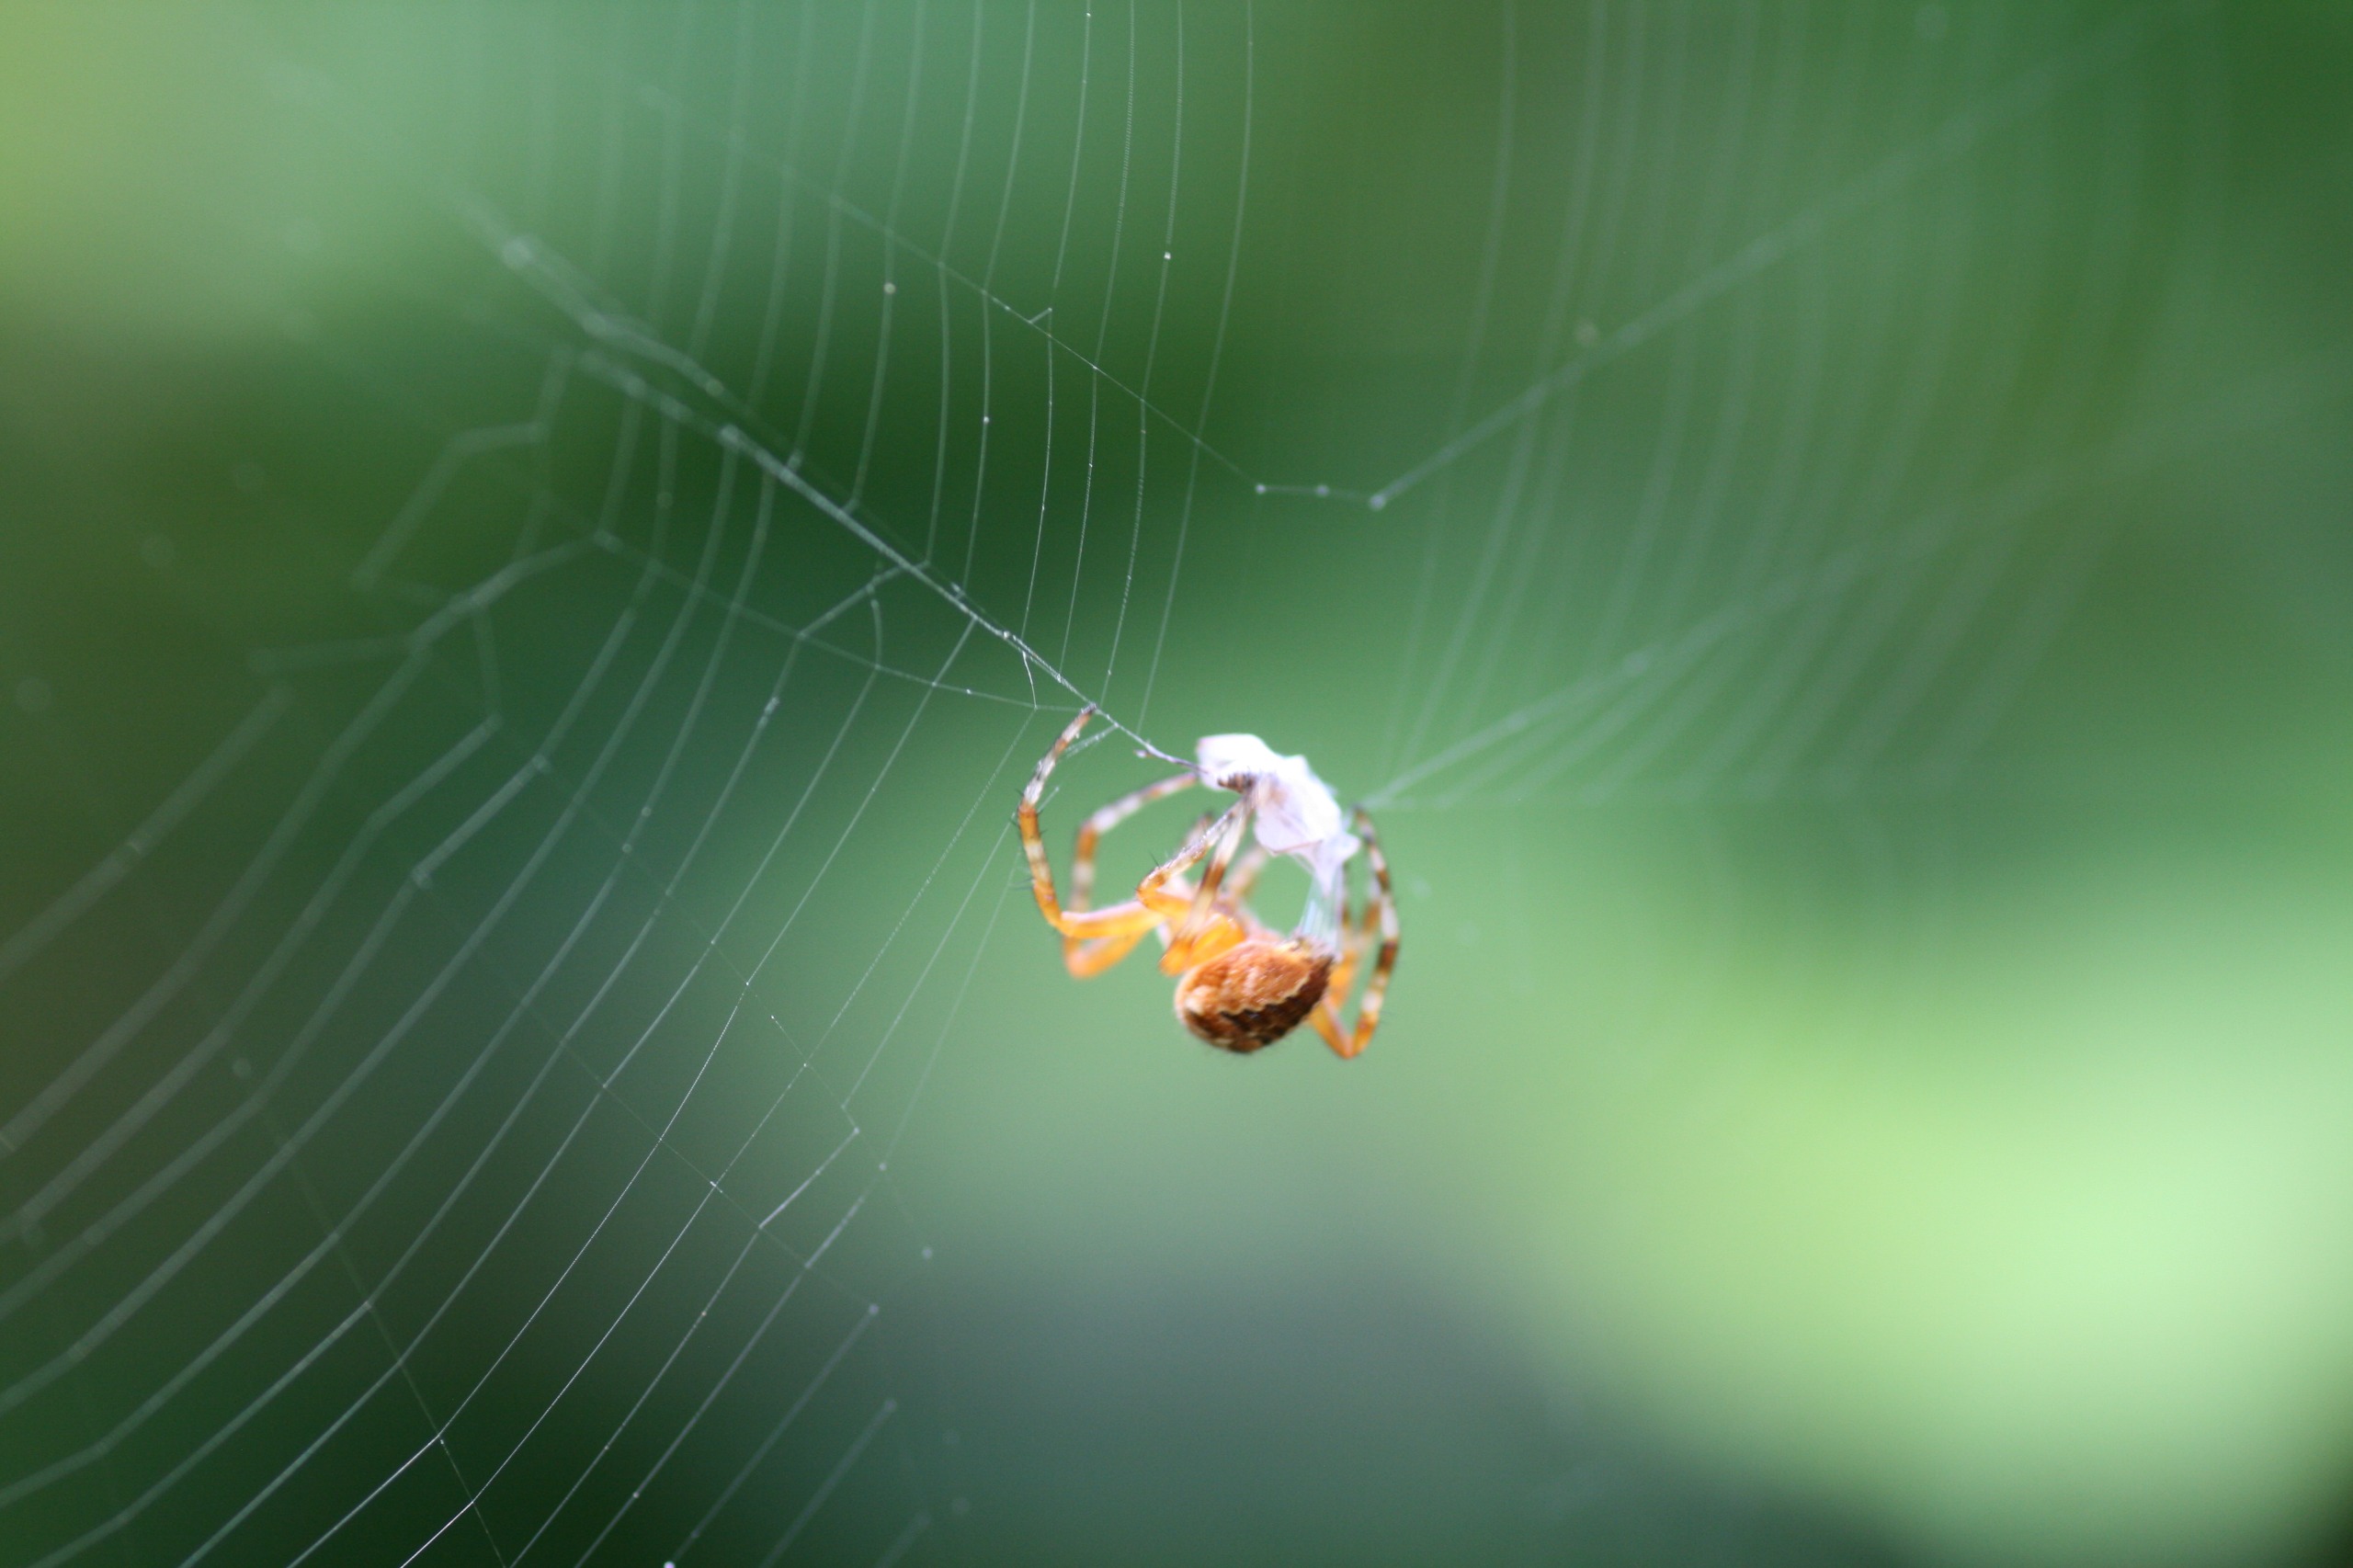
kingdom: Animalia
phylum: Arthropoda
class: Arachnida
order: Araneae
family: Araneidae
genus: Araneus
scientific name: Araneus diadematus
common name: Korsedderkop
